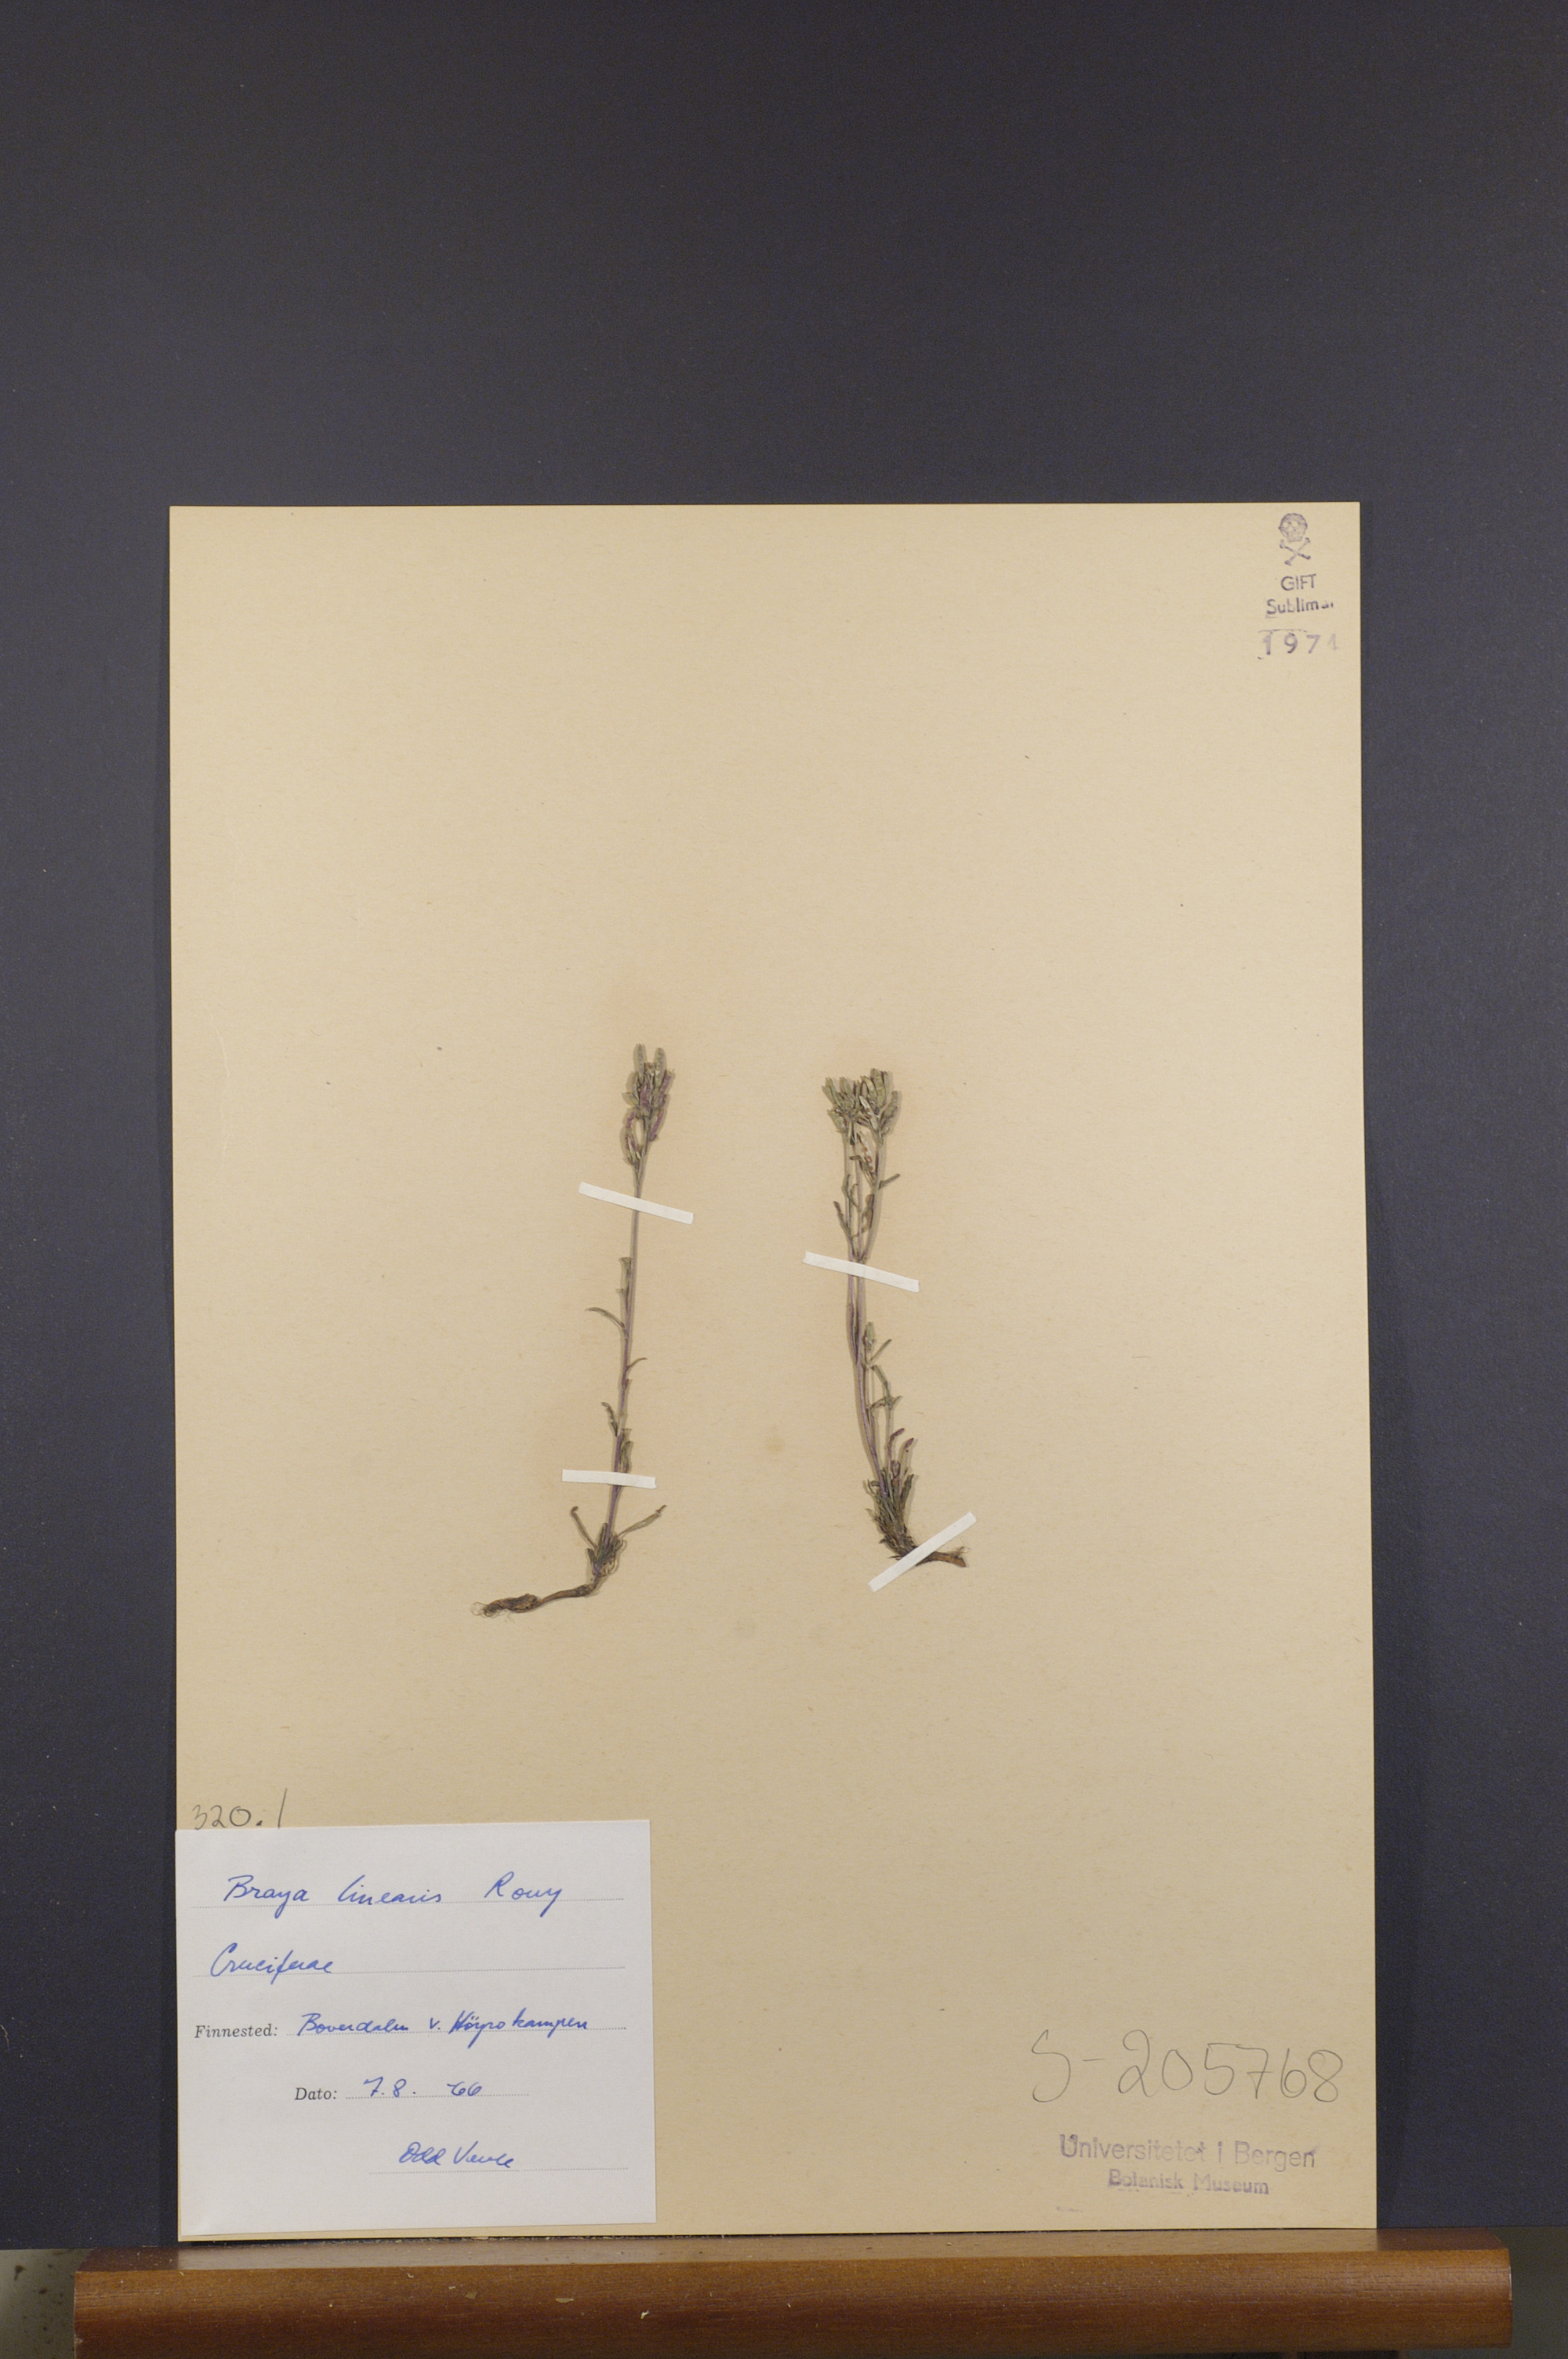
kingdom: Plantae
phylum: Tracheophyta
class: Magnoliopsida
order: Brassicales
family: Brassicaceae
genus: Braya
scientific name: Braya linearis
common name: Narrow-fruit braya
